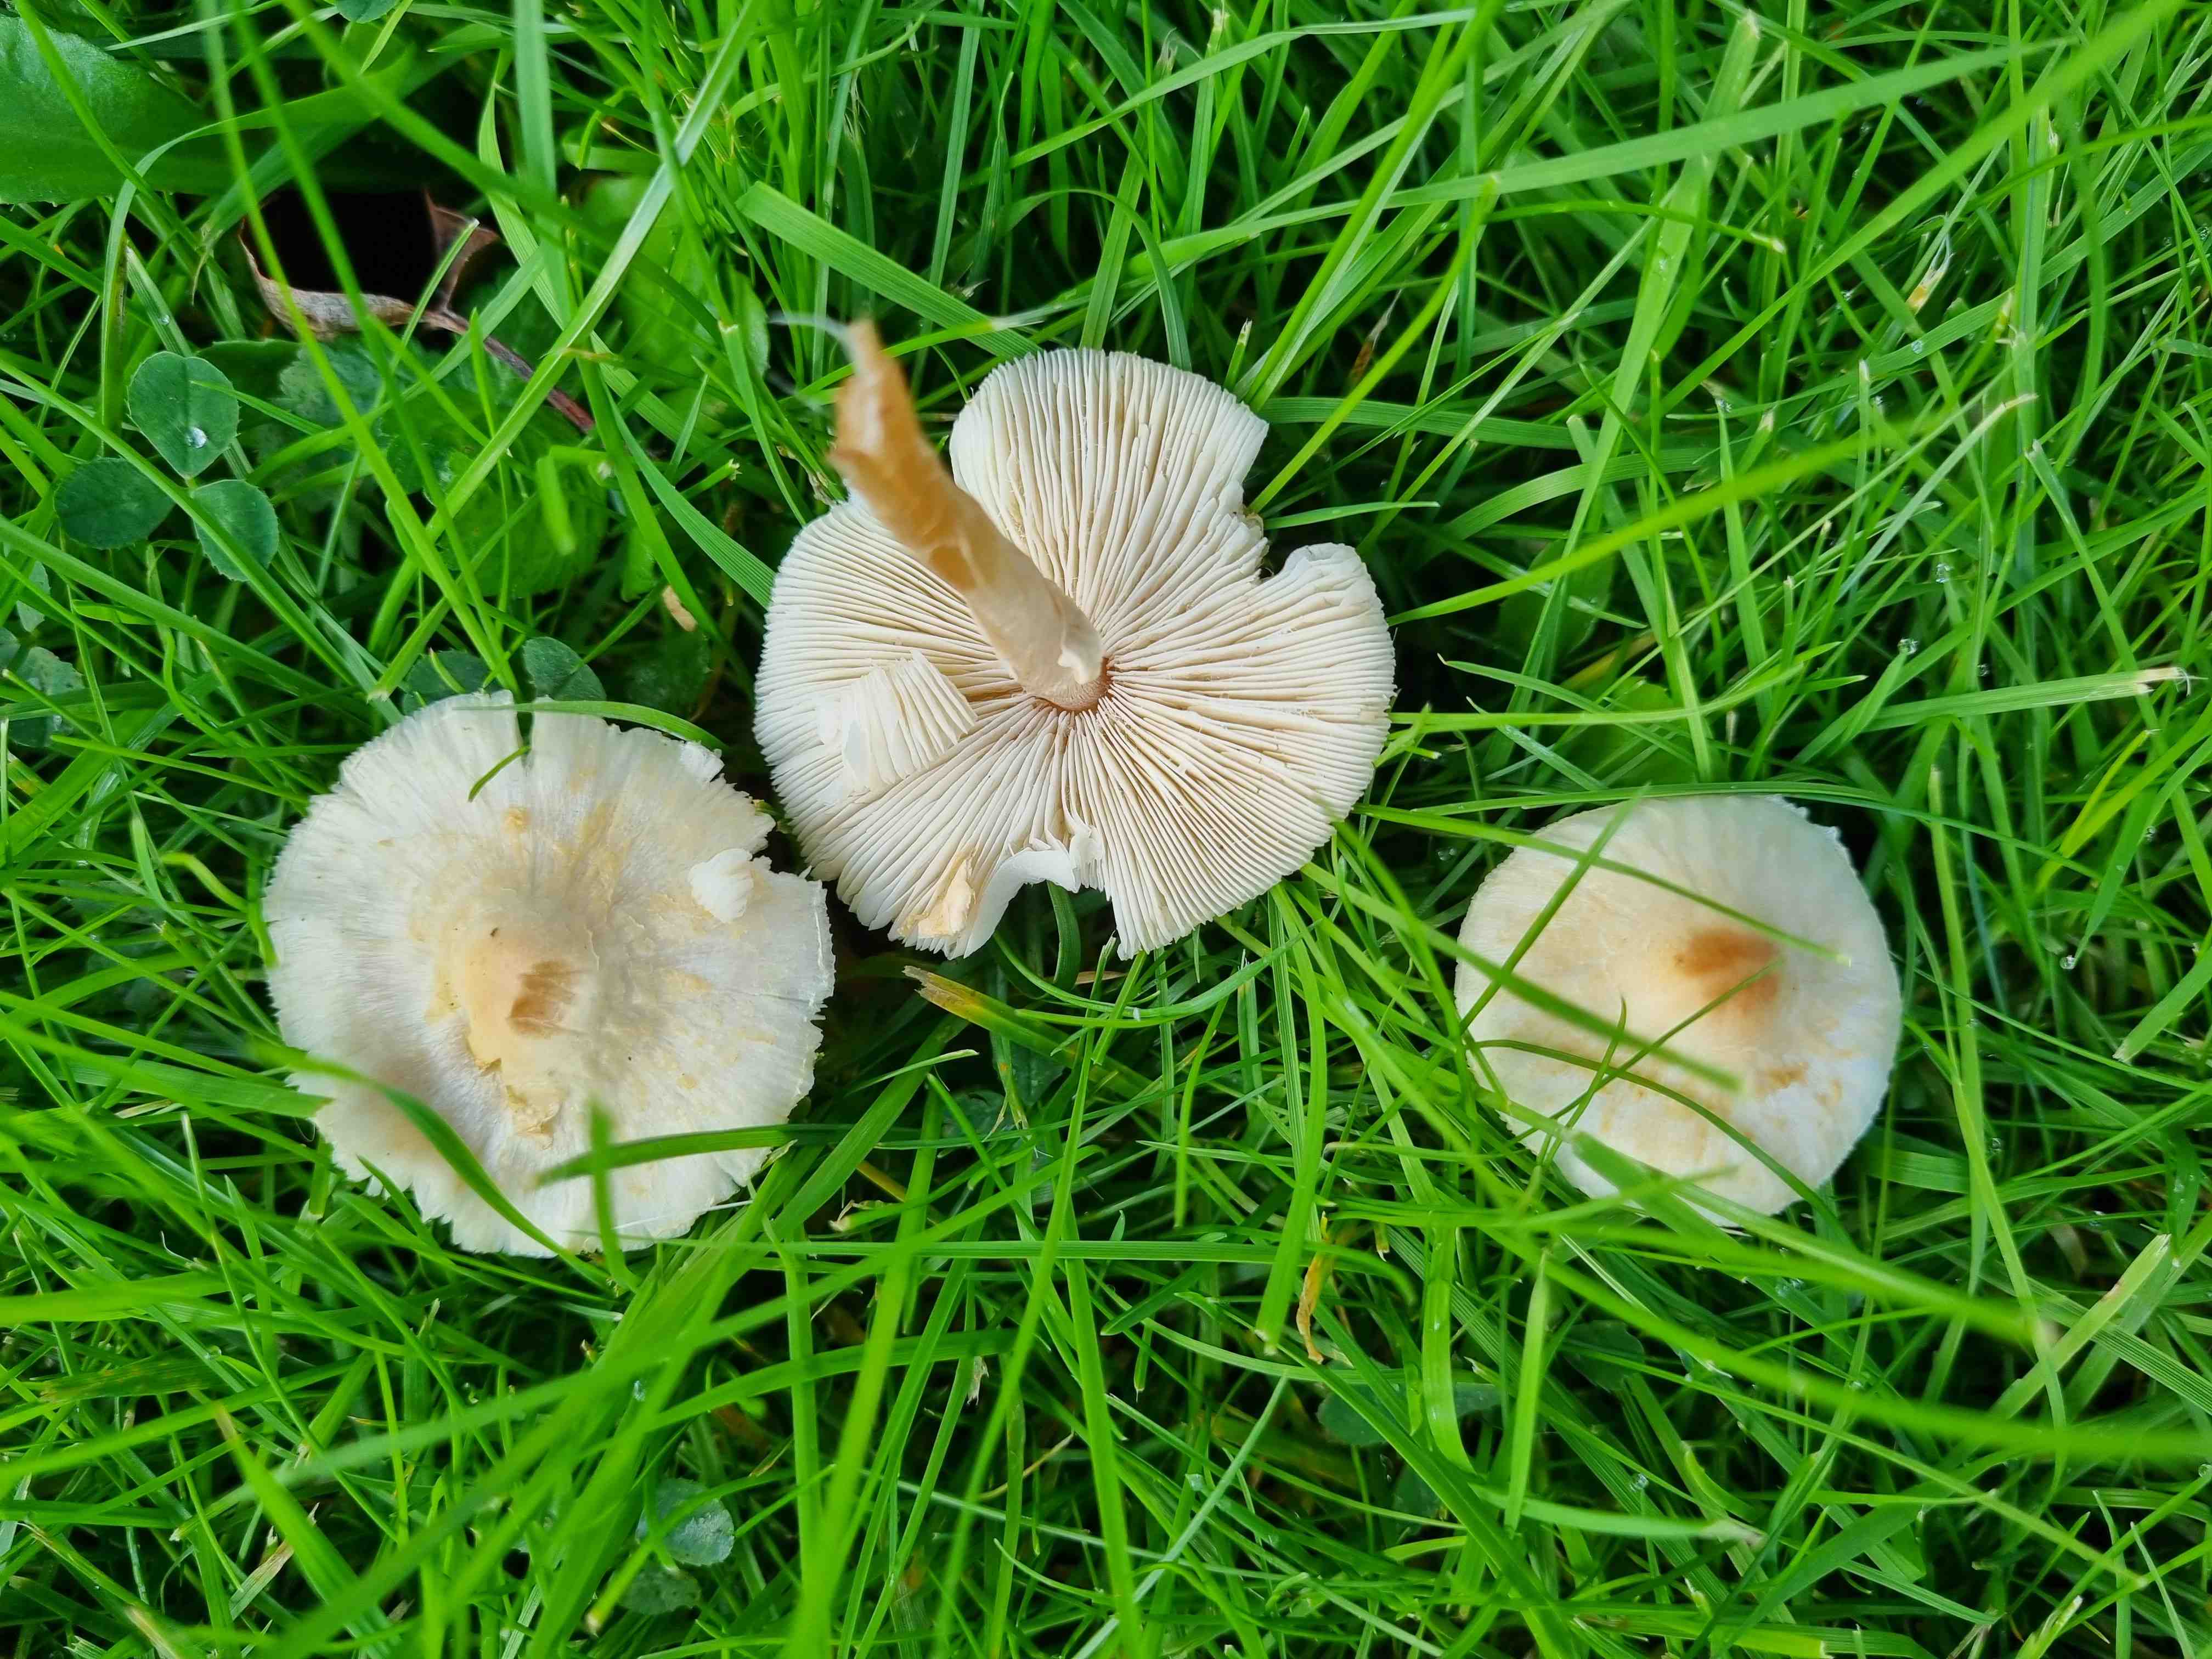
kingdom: Fungi
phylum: Basidiomycota
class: Agaricomycetes
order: Agaricales
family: Agaricaceae
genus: Lepiota
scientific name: Lepiota cristata
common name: stinkende parasolhat
